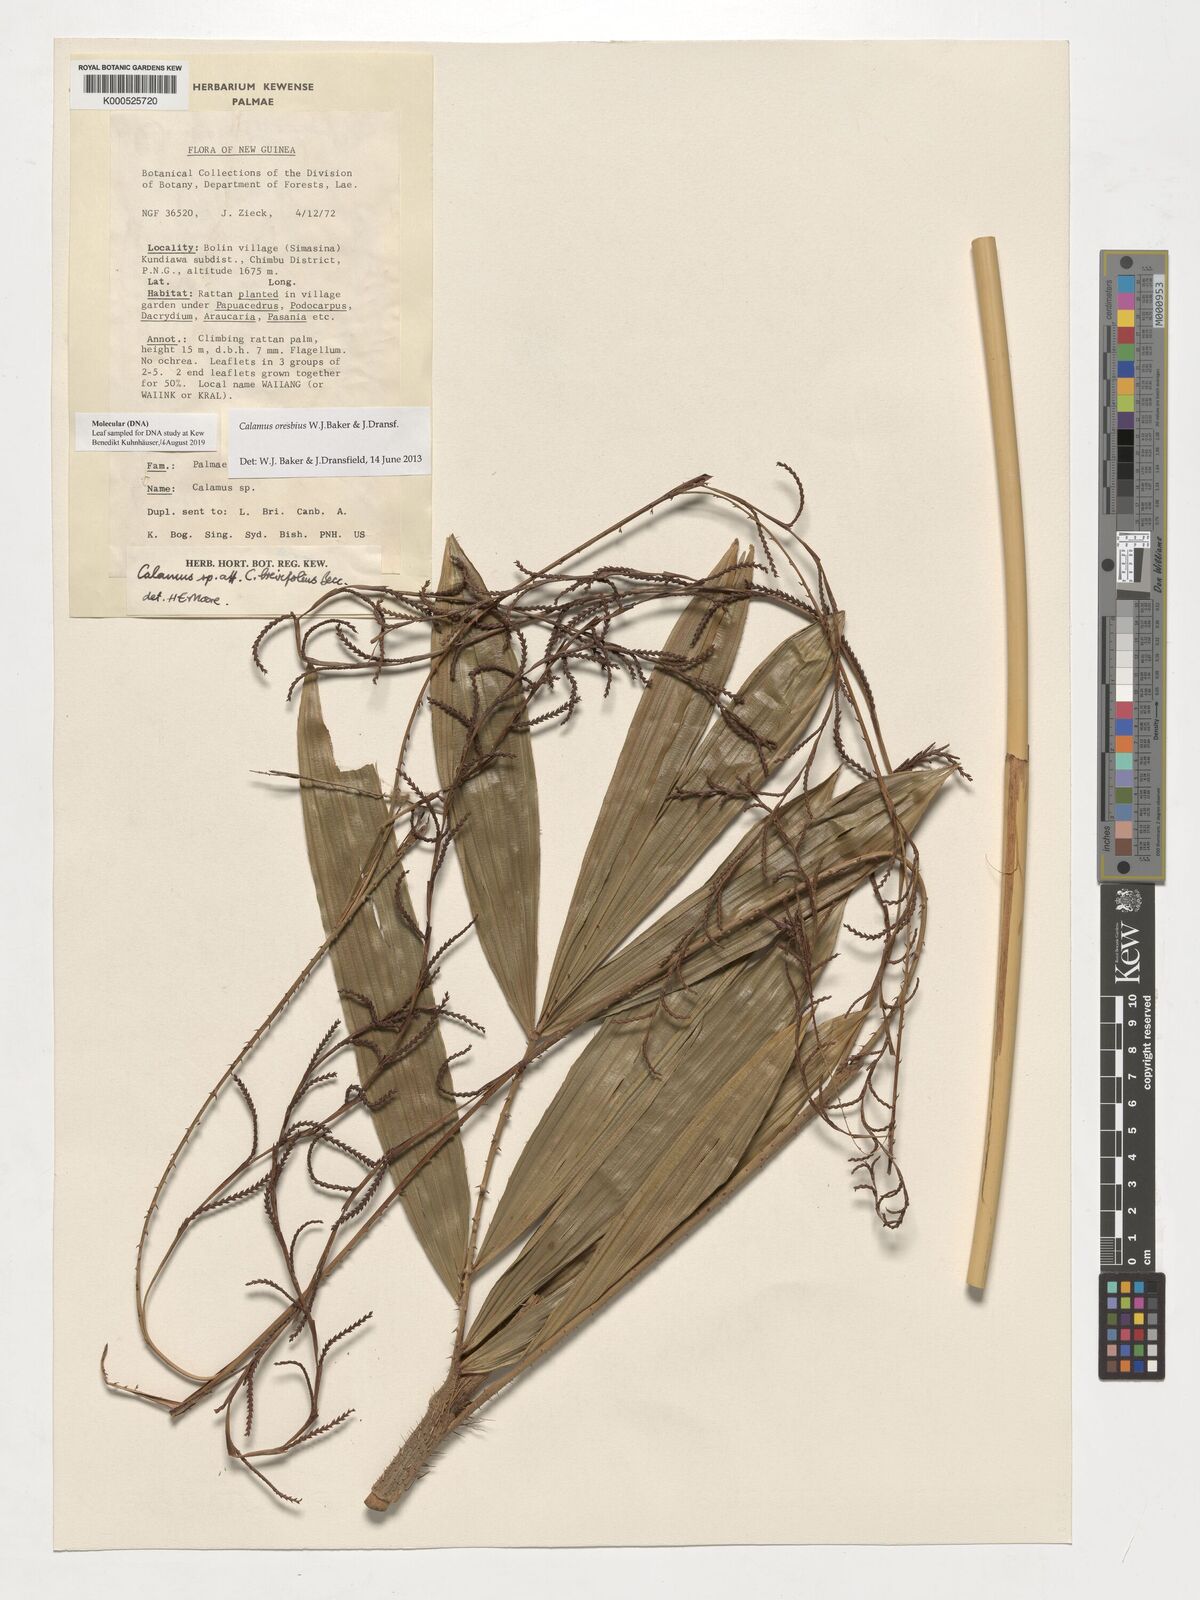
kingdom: Plantae
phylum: Tracheophyta
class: Liliopsida
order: Arecales
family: Arecaceae
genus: Calamus
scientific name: Calamus
